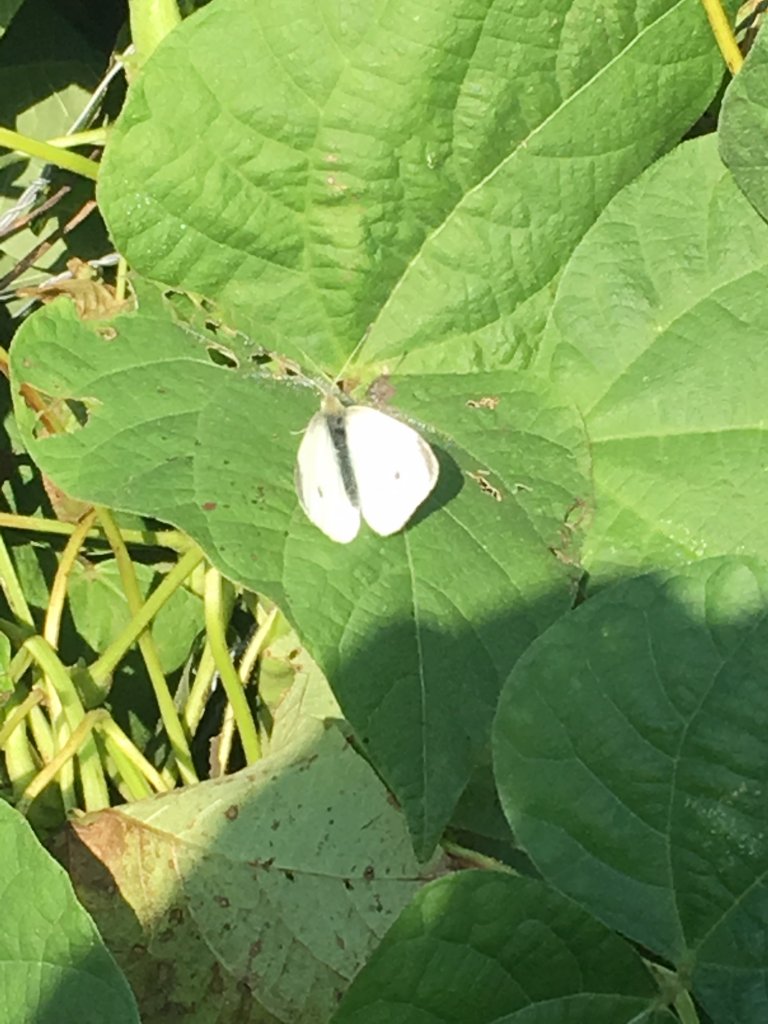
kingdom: Animalia
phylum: Arthropoda
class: Insecta
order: Lepidoptera
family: Pieridae
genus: Pieris
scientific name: Pieris rapae
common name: Cabbage White
